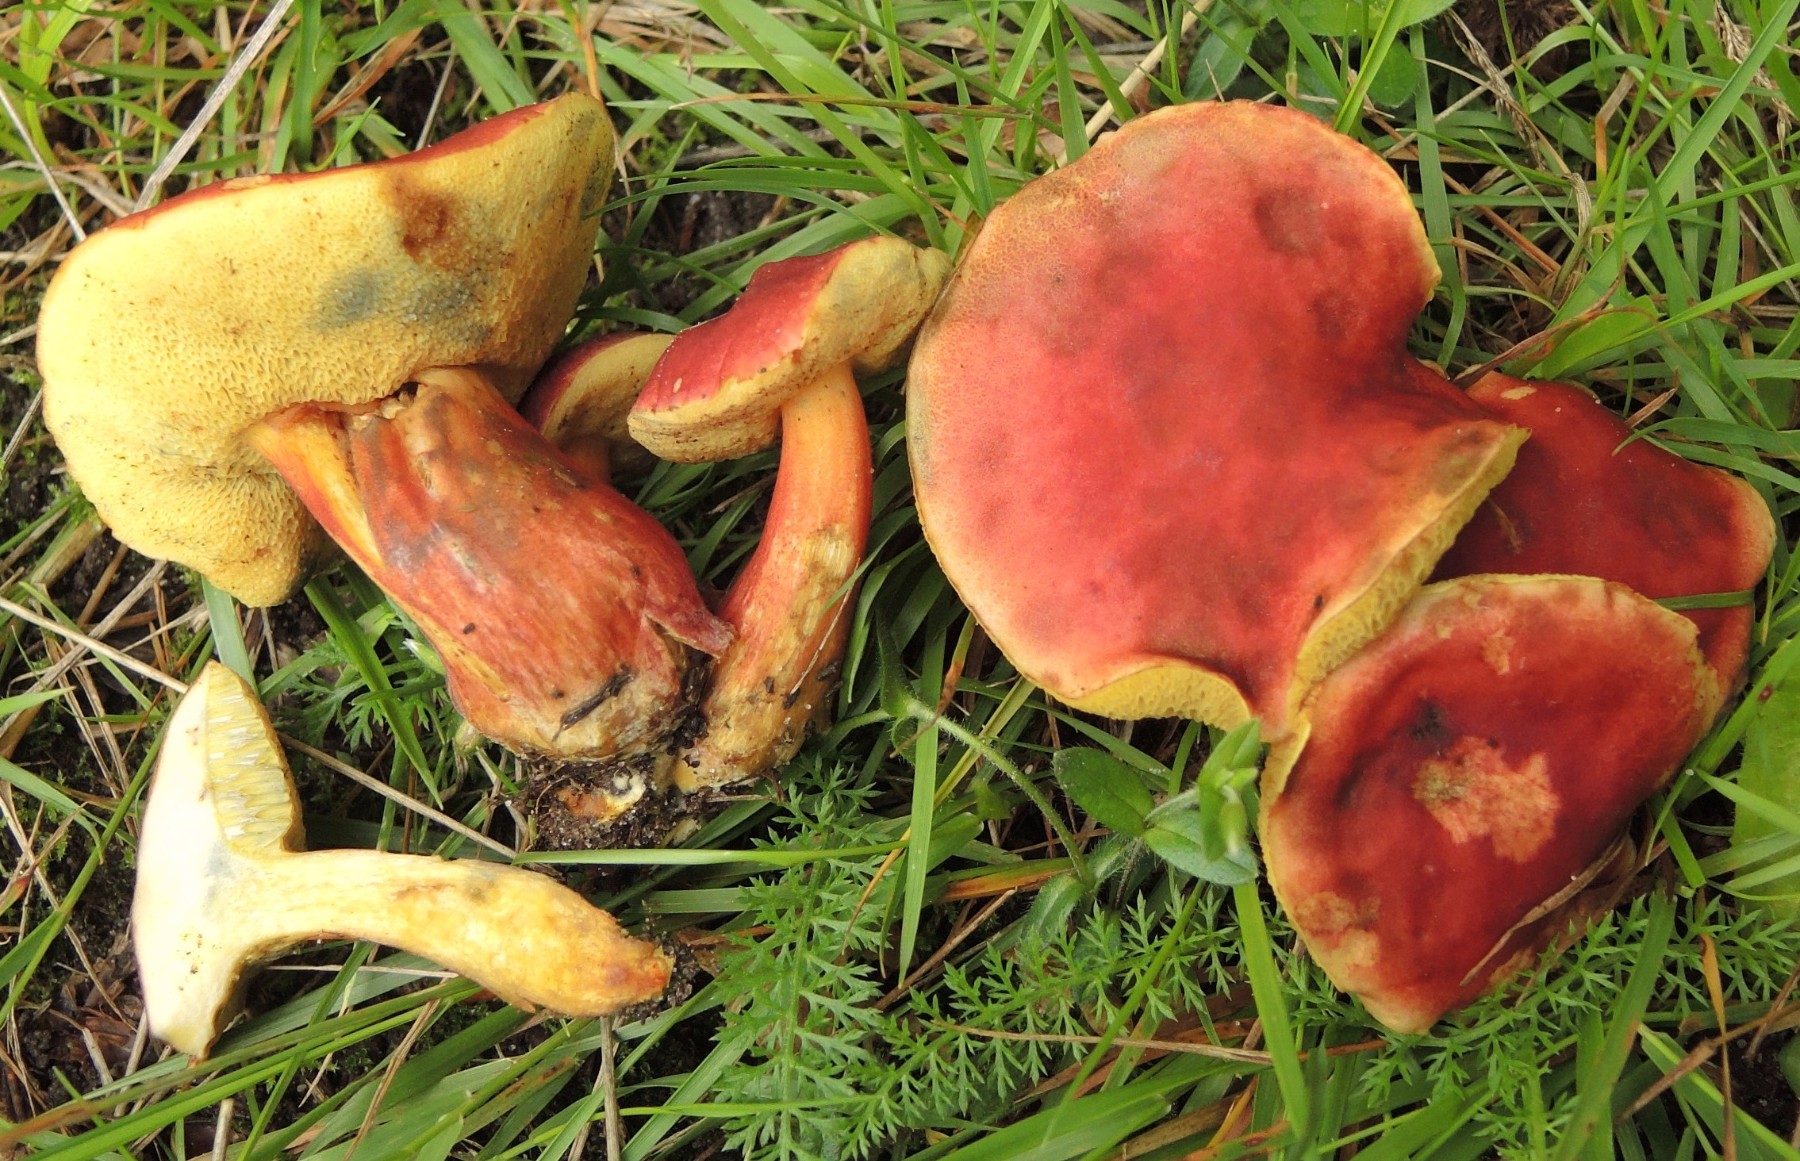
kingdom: Fungi
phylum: Basidiomycota
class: Agaricomycetes
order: Boletales
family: Boletaceae
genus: Hortiboletus
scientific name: Hortiboletus rubellus
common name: blodrød rørhat
